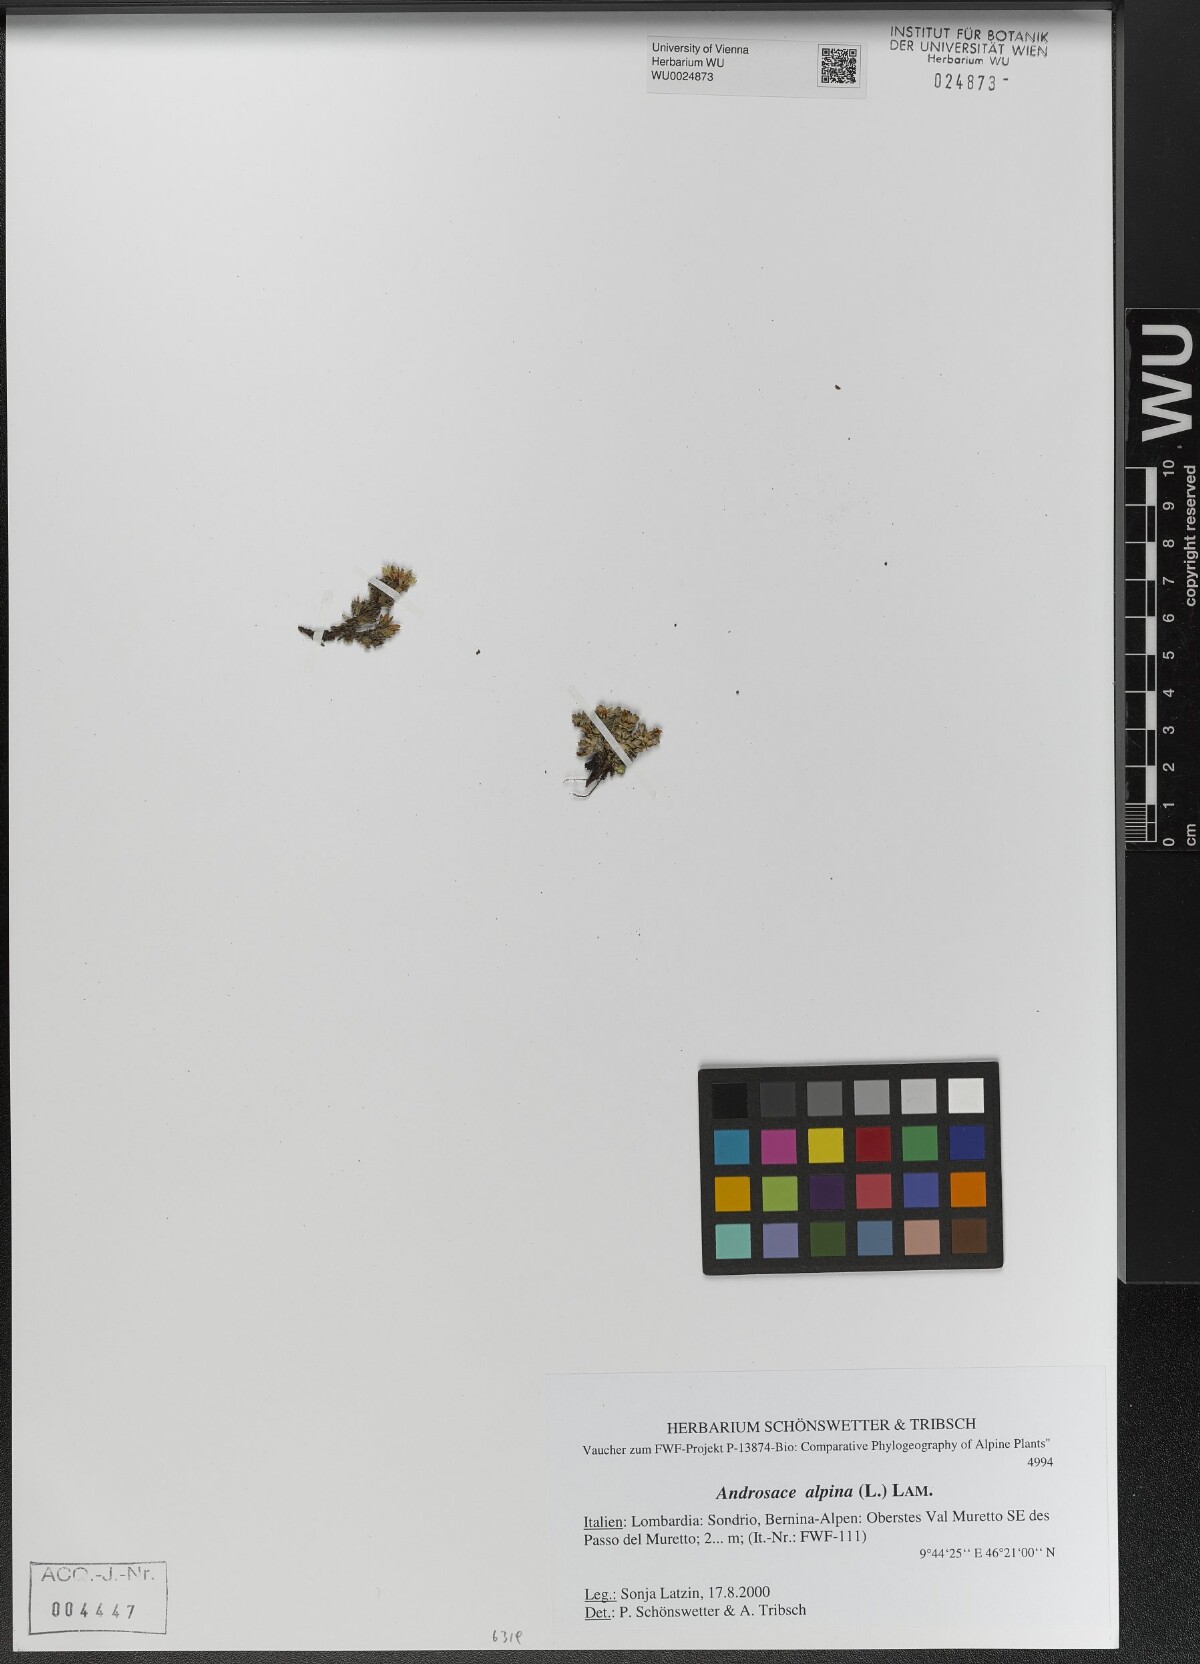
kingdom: Plantae
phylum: Tracheophyta
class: Magnoliopsida
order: Ericales
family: Primulaceae
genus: Androsace
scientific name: Androsace alpina
